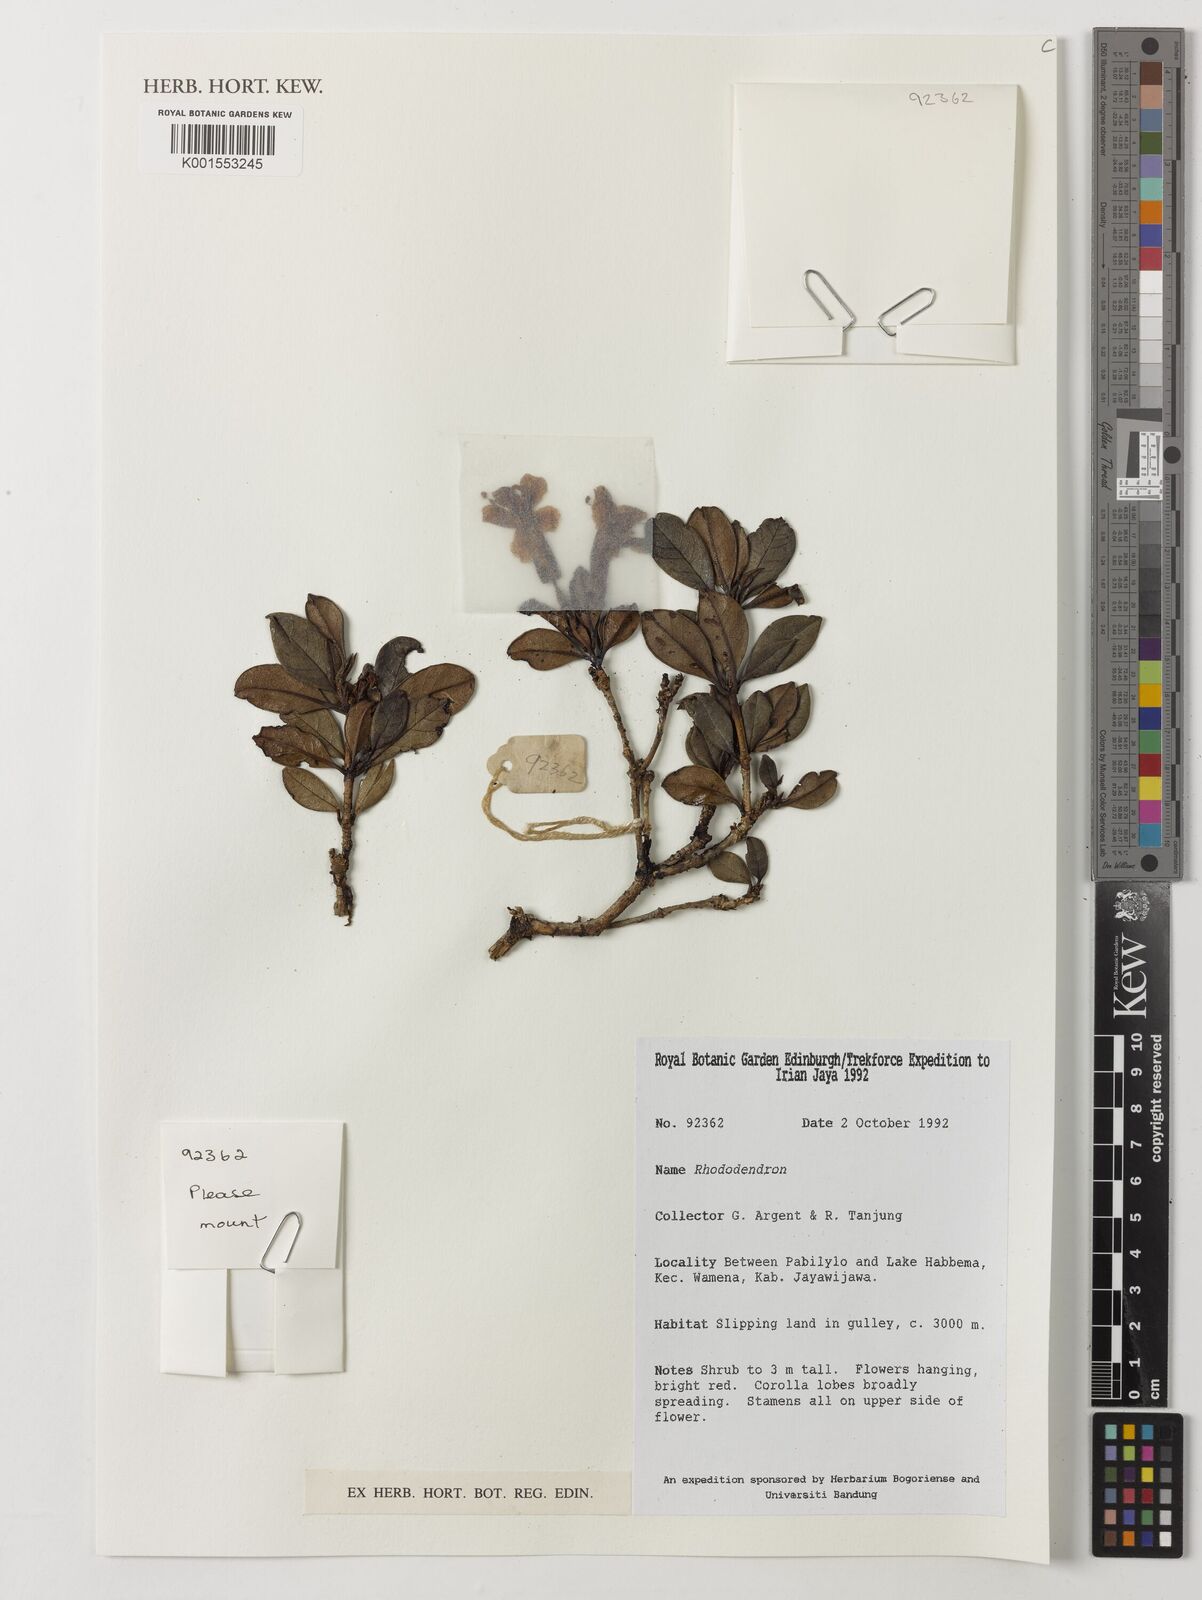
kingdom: Plantae
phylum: Tracheophyta
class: Magnoliopsida
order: Ericales
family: Ericaceae
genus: Rhododendron
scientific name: Rhododendron
